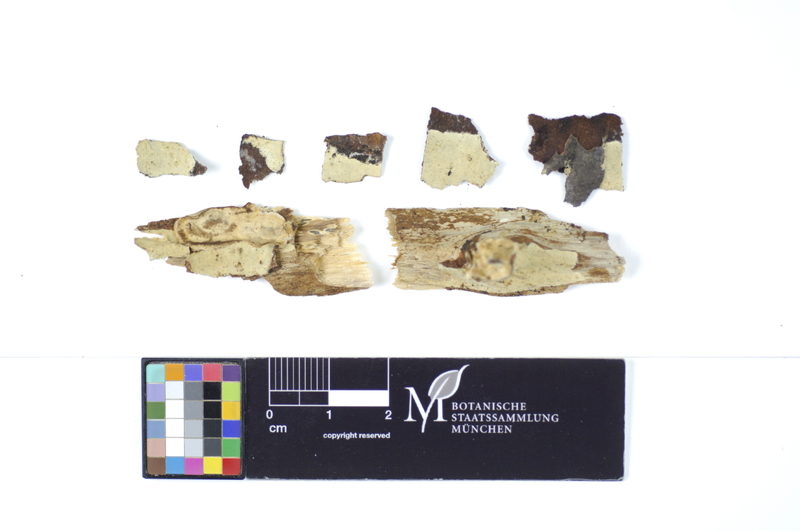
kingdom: Plantae
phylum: Tracheophyta
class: Magnoliopsida
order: Fagales
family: Betulaceae
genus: Betula
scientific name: Betula
